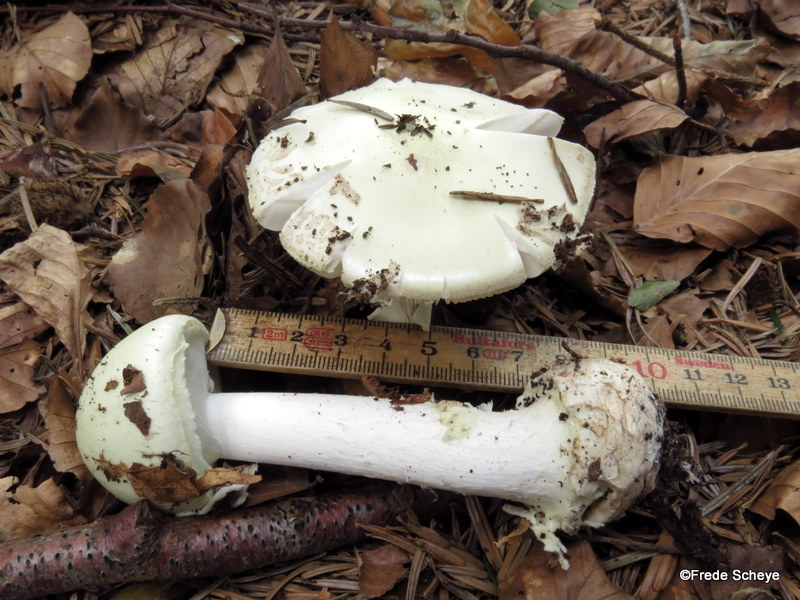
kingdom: Fungi
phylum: Basidiomycota
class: Agaricomycetes
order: Agaricales
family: Amanitaceae
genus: Amanita
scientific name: Amanita citrina
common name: False death-cap
